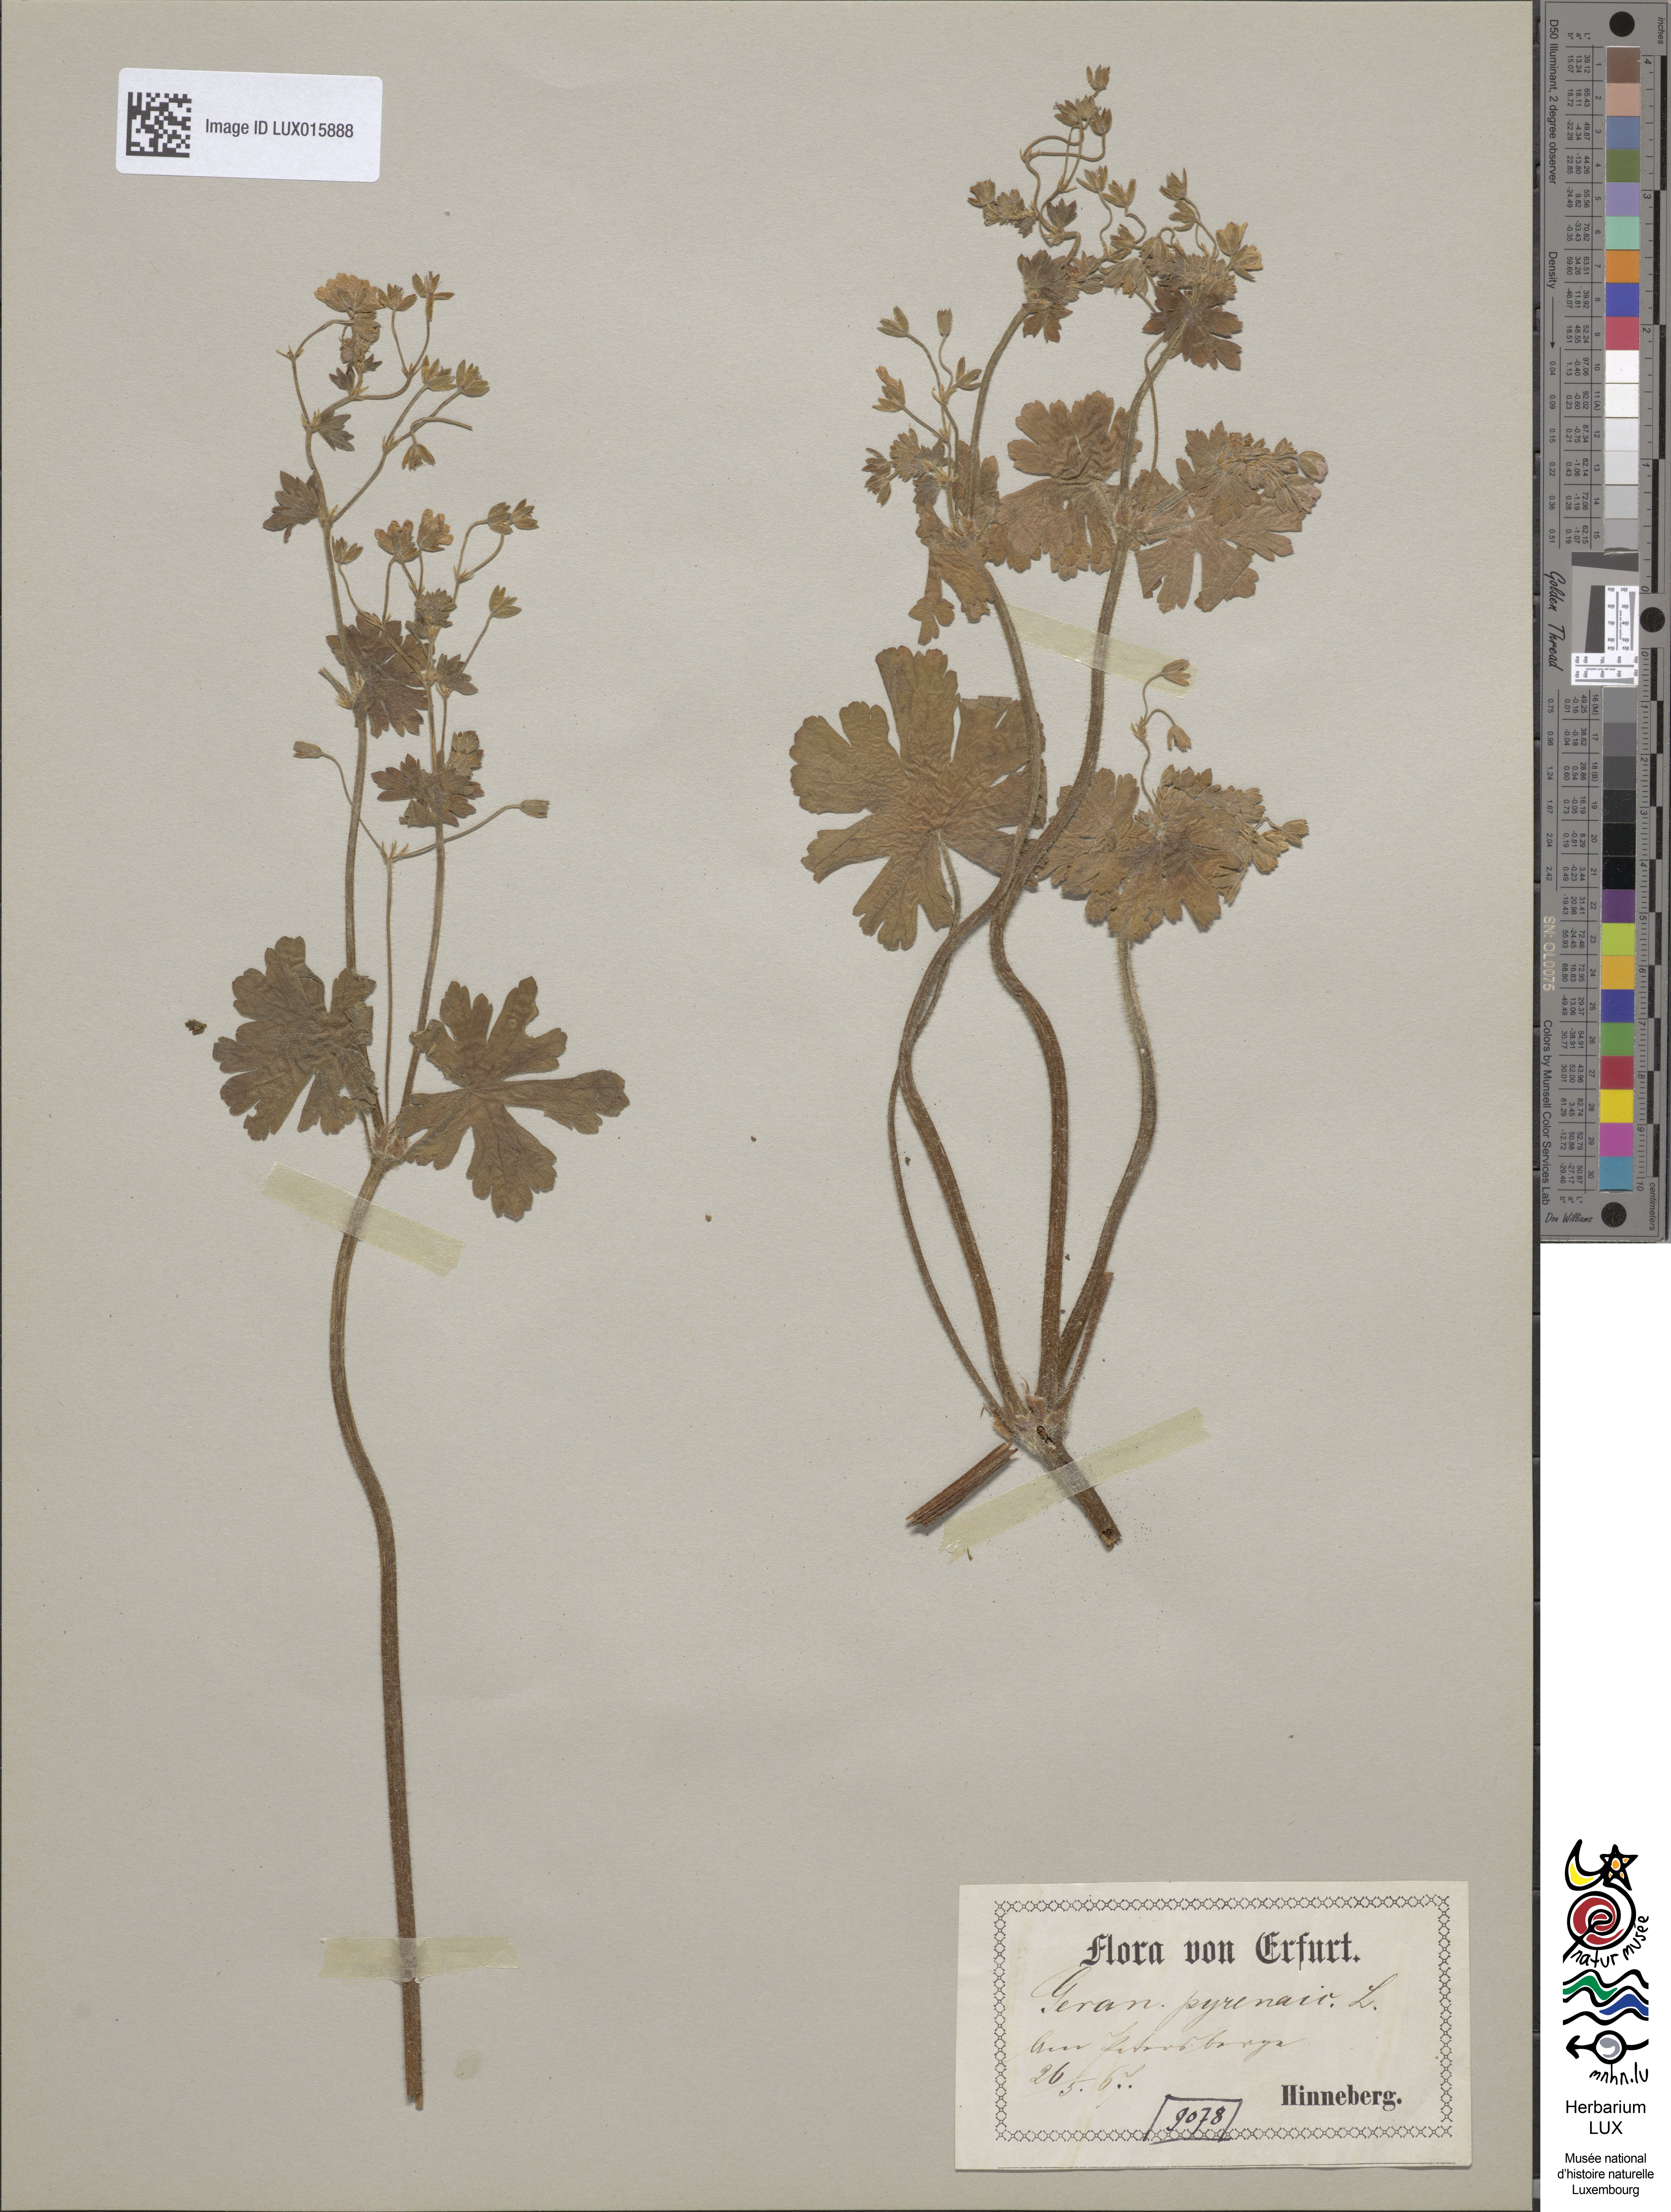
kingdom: Plantae
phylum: Tracheophyta
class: Magnoliopsida
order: Geraniales
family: Geraniaceae
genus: Geranium
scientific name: Geranium pyrenaicum
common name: Hedgerow crane's-bill
